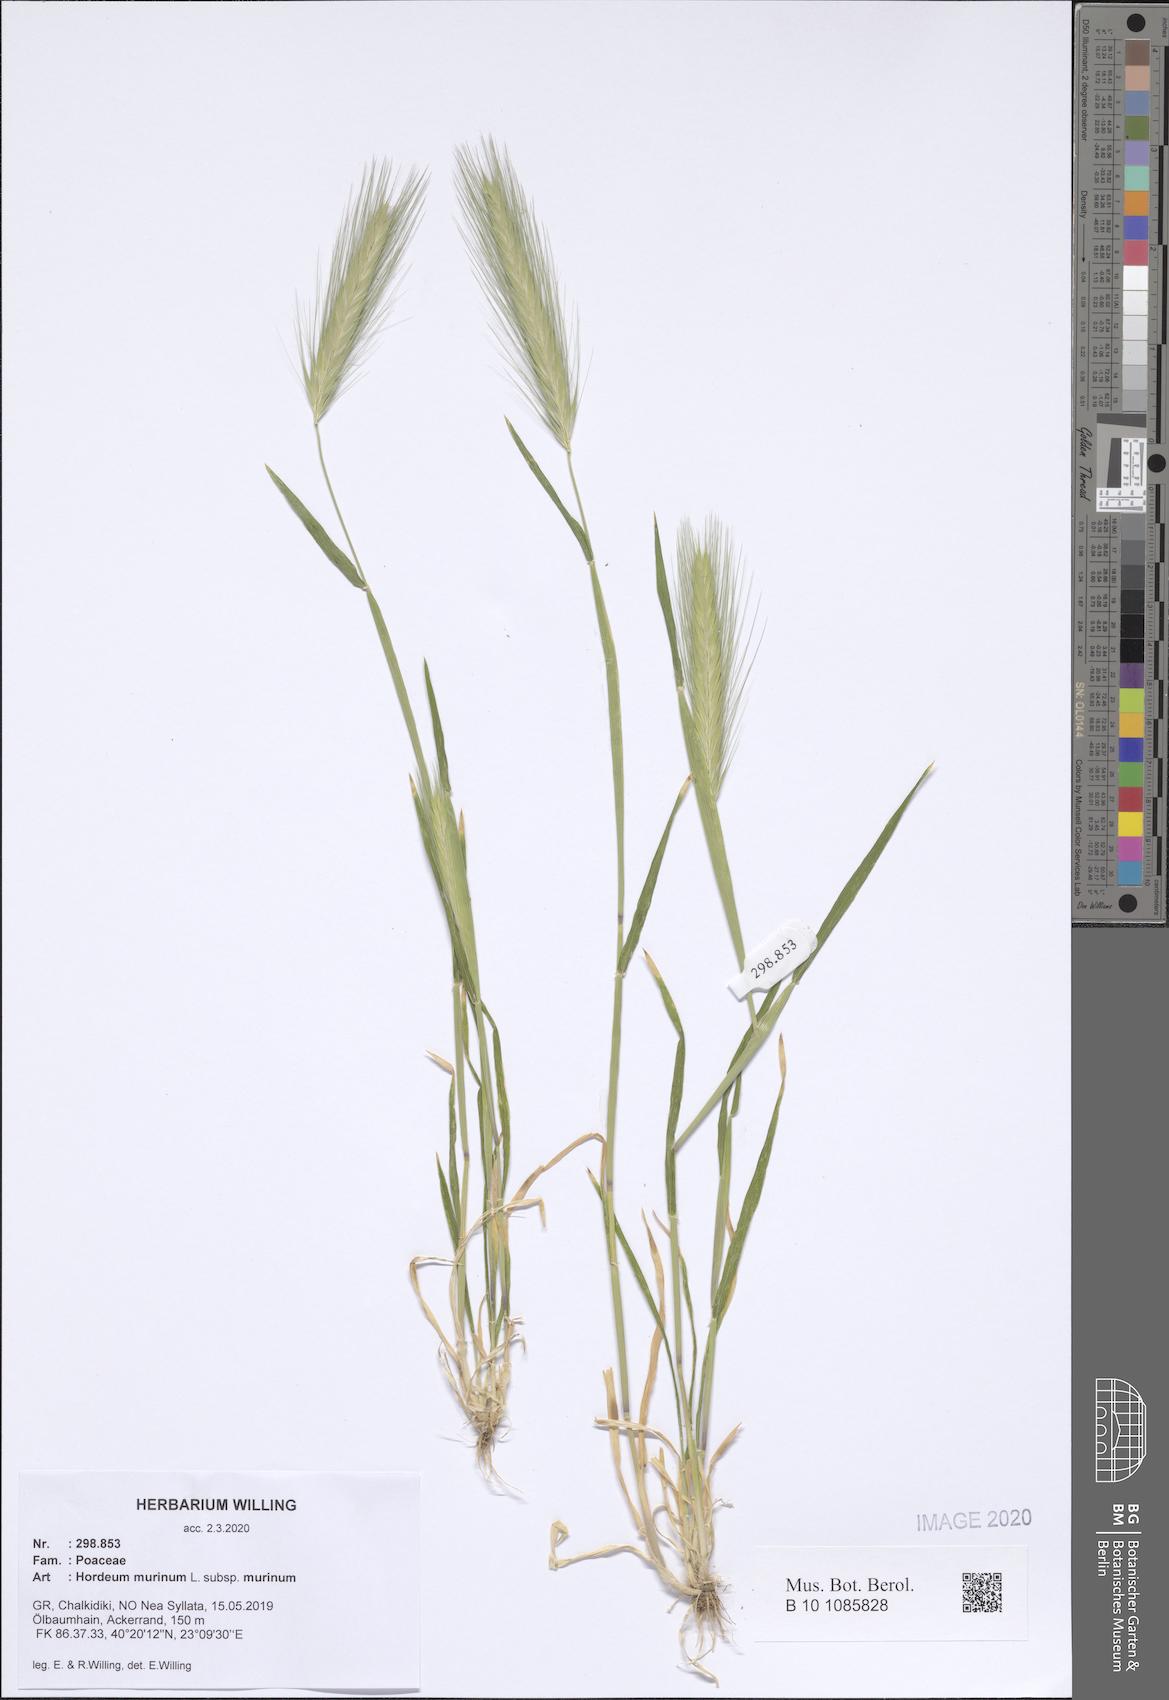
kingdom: Plantae
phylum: Tracheophyta
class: Liliopsida
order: Poales
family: Poaceae
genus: Hordeum
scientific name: Hordeum murinum
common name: Wall barley
